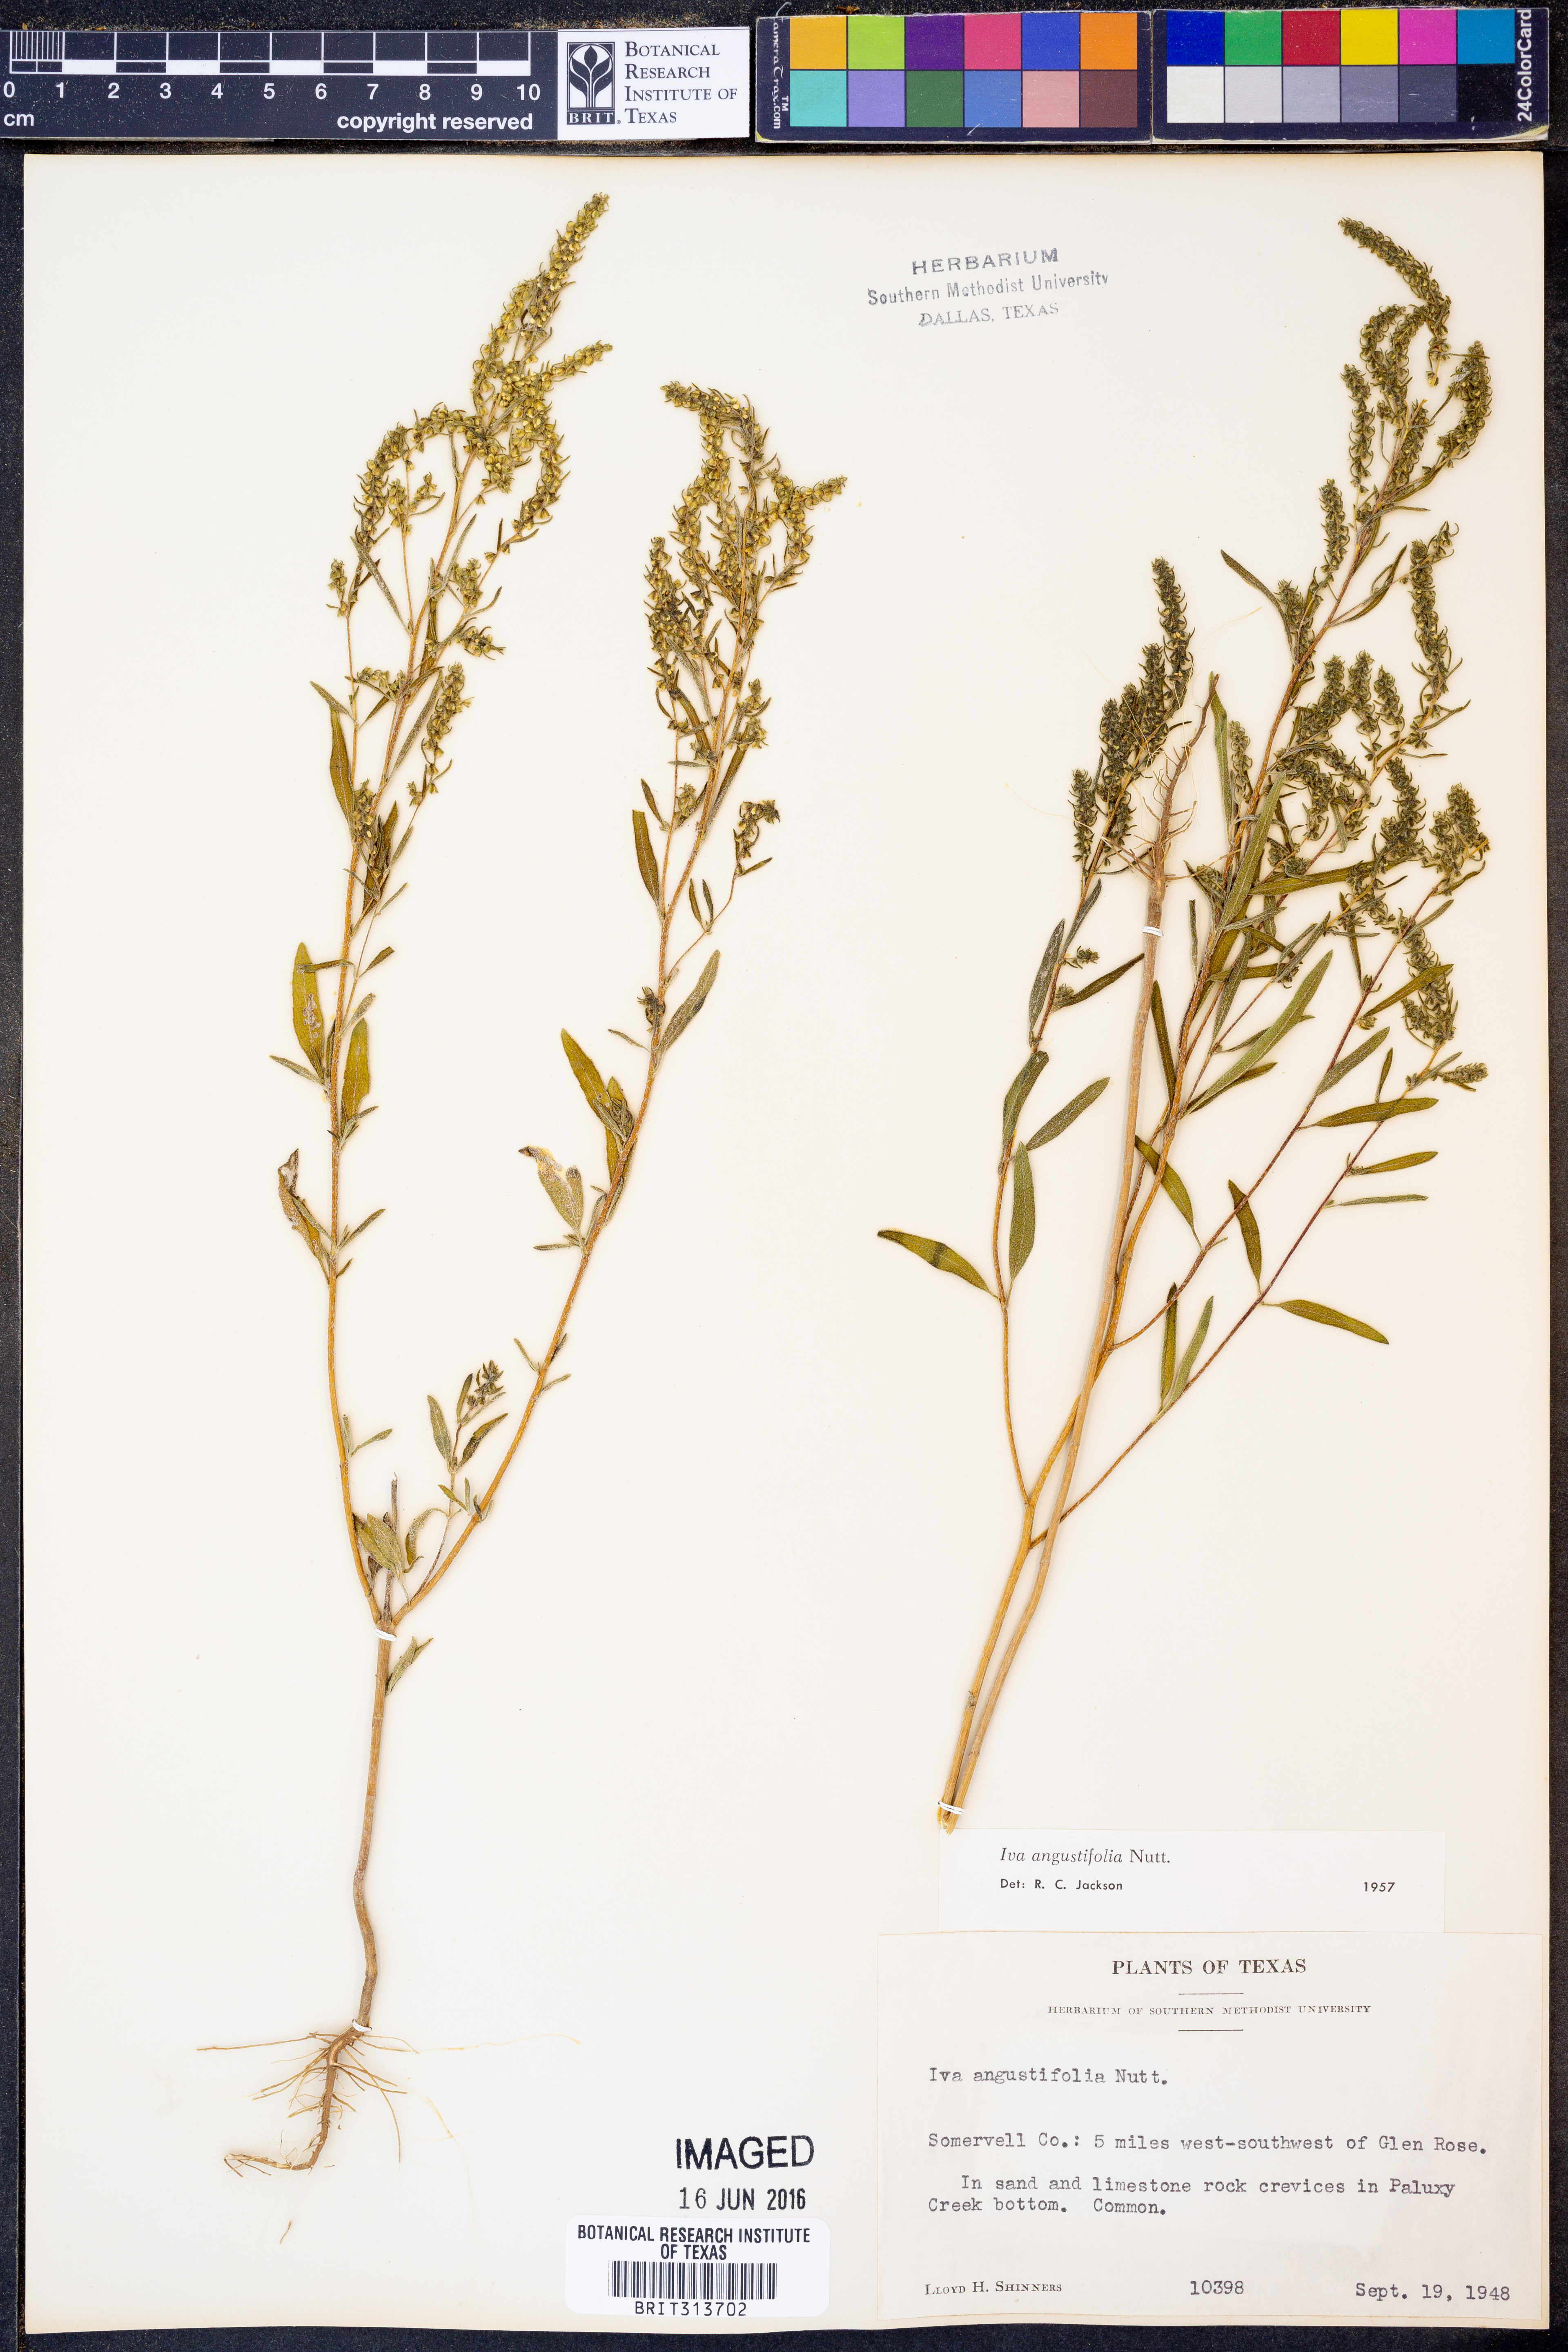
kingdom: Plantae
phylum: Tracheophyta
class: Magnoliopsida
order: Asterales
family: Asteraceae
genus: Iva
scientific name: Iva asperifolia
